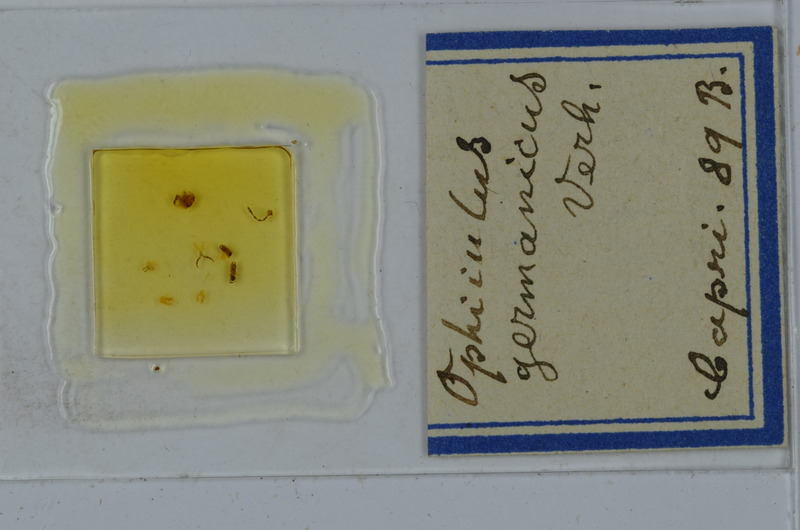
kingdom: Animalia
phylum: Arthropoda
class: Diplopoda
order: Julida
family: Julidae
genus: Ophyiulus
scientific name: Ophyiulus germanicus
